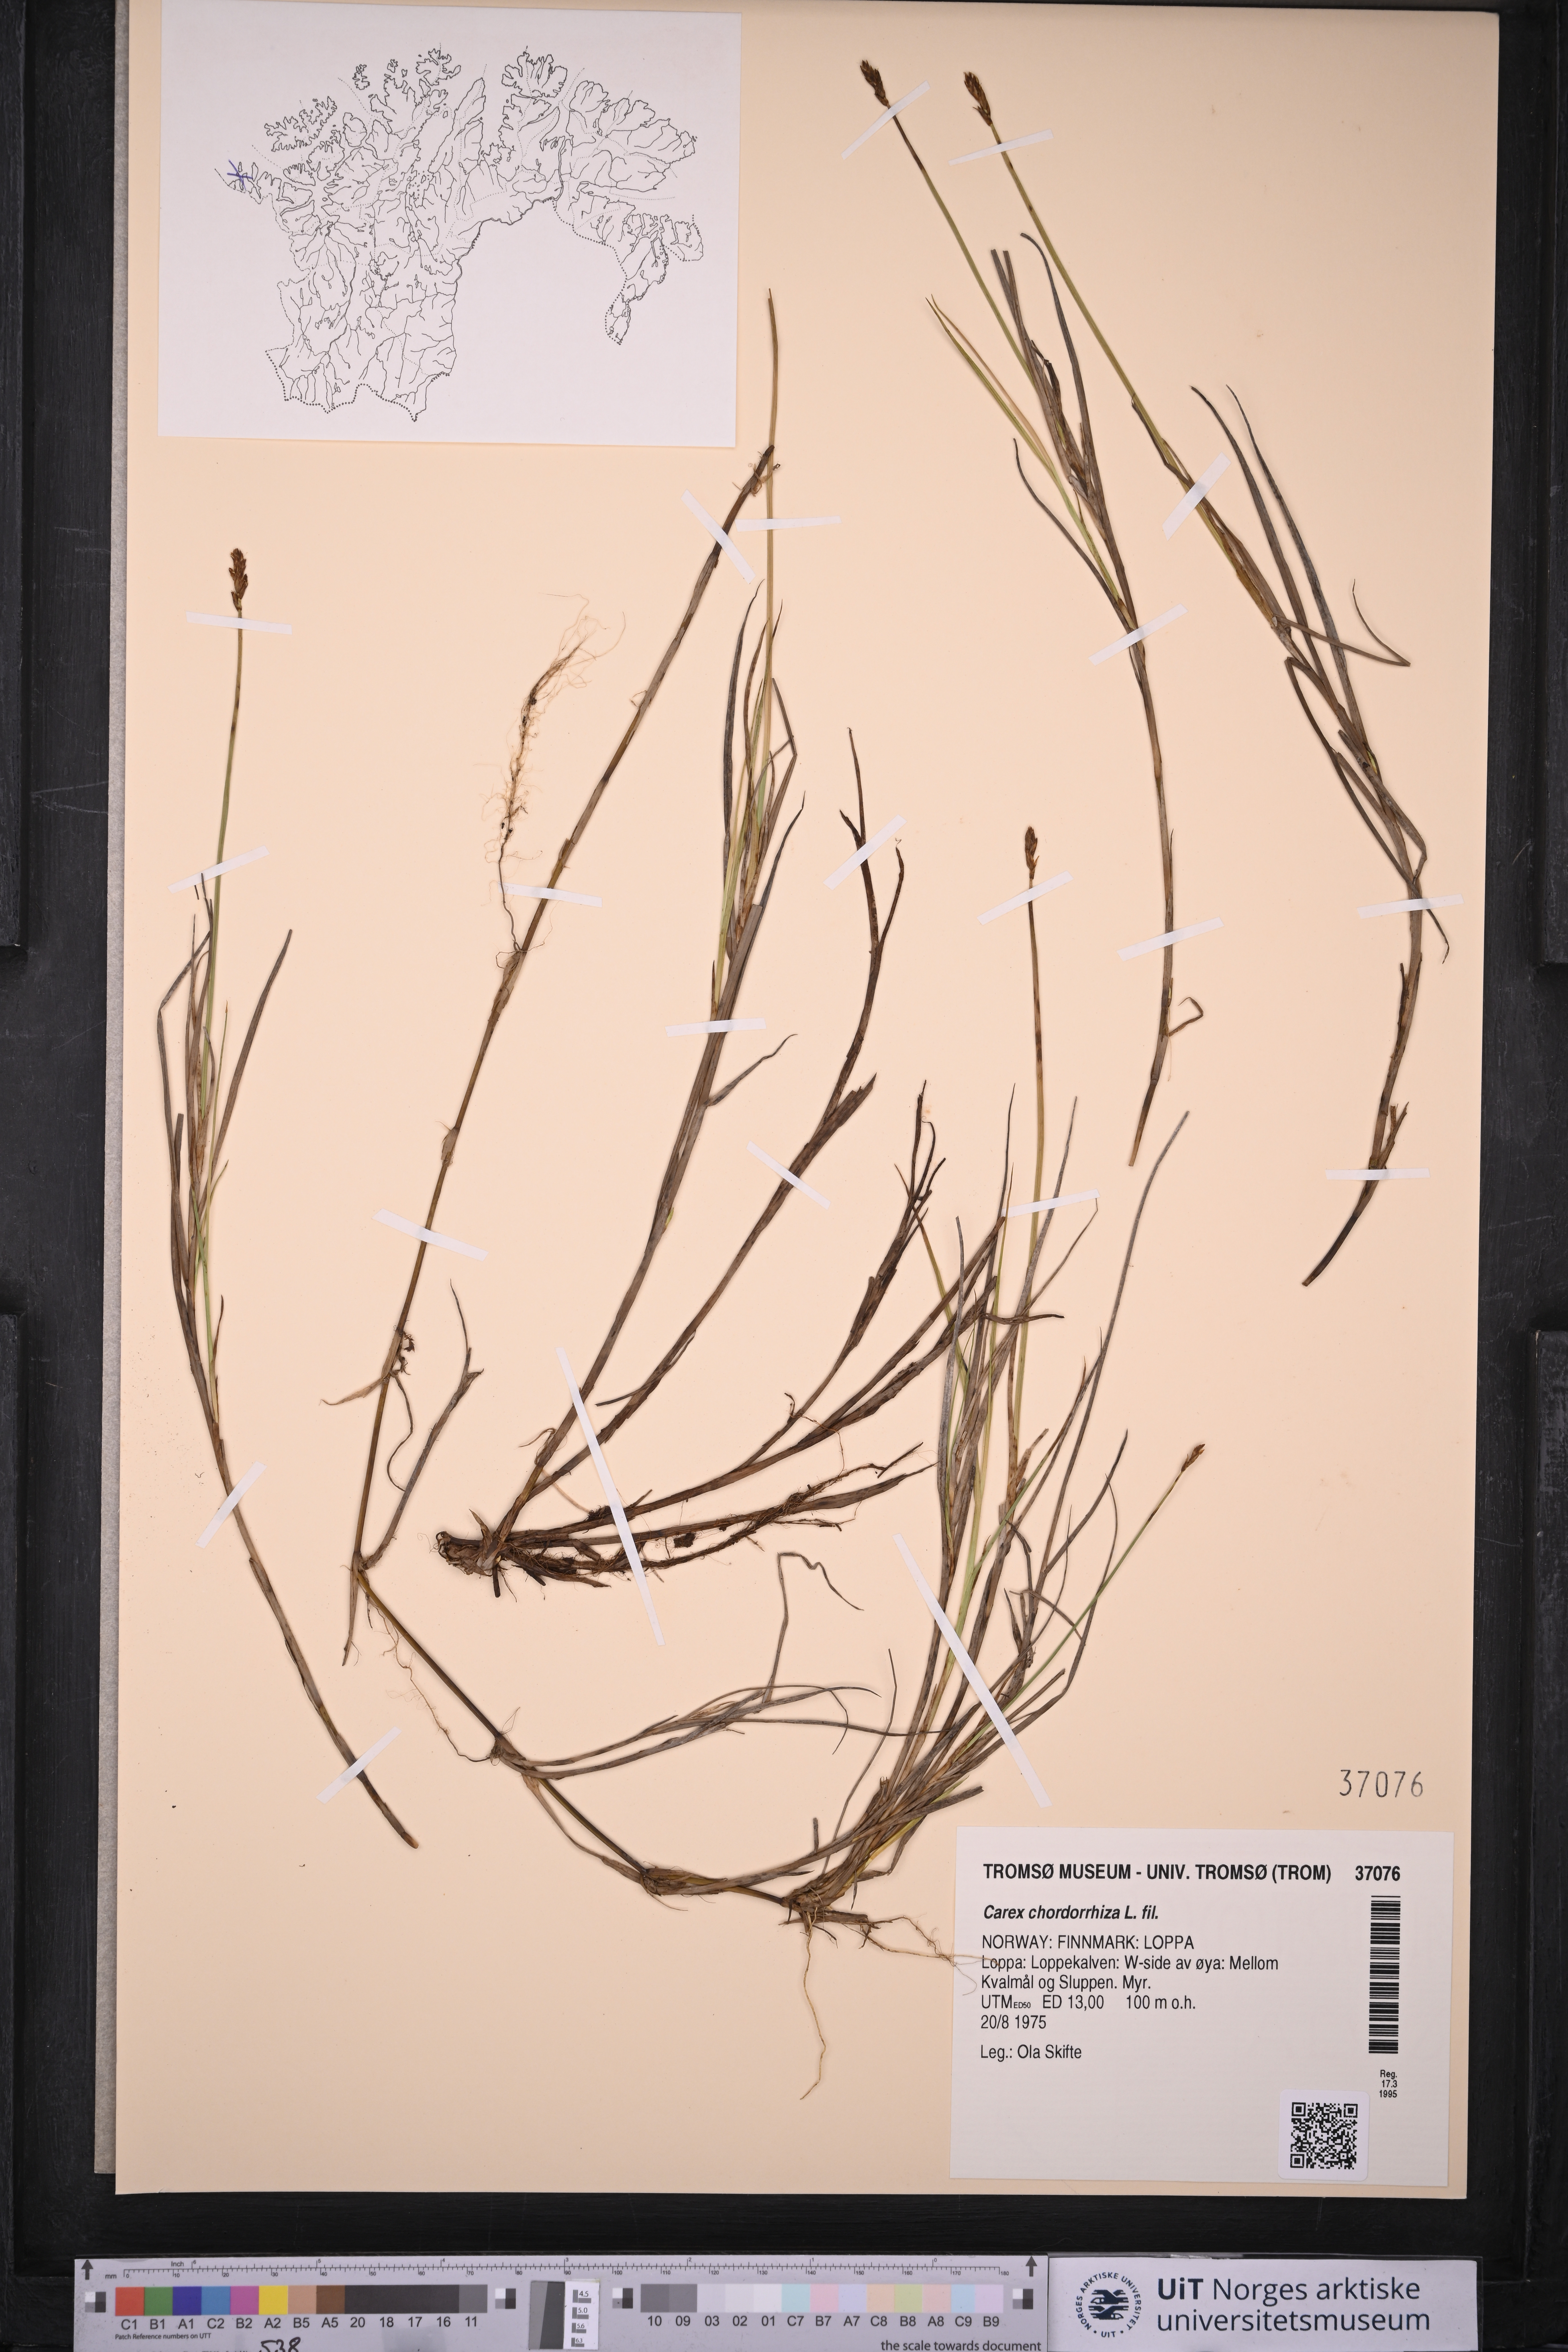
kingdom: Plantae
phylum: Tracheophyta
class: Liliopsida
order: Poales
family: Cyperaceae
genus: Carex
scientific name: Carex chordorrhiza
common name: String sedge
